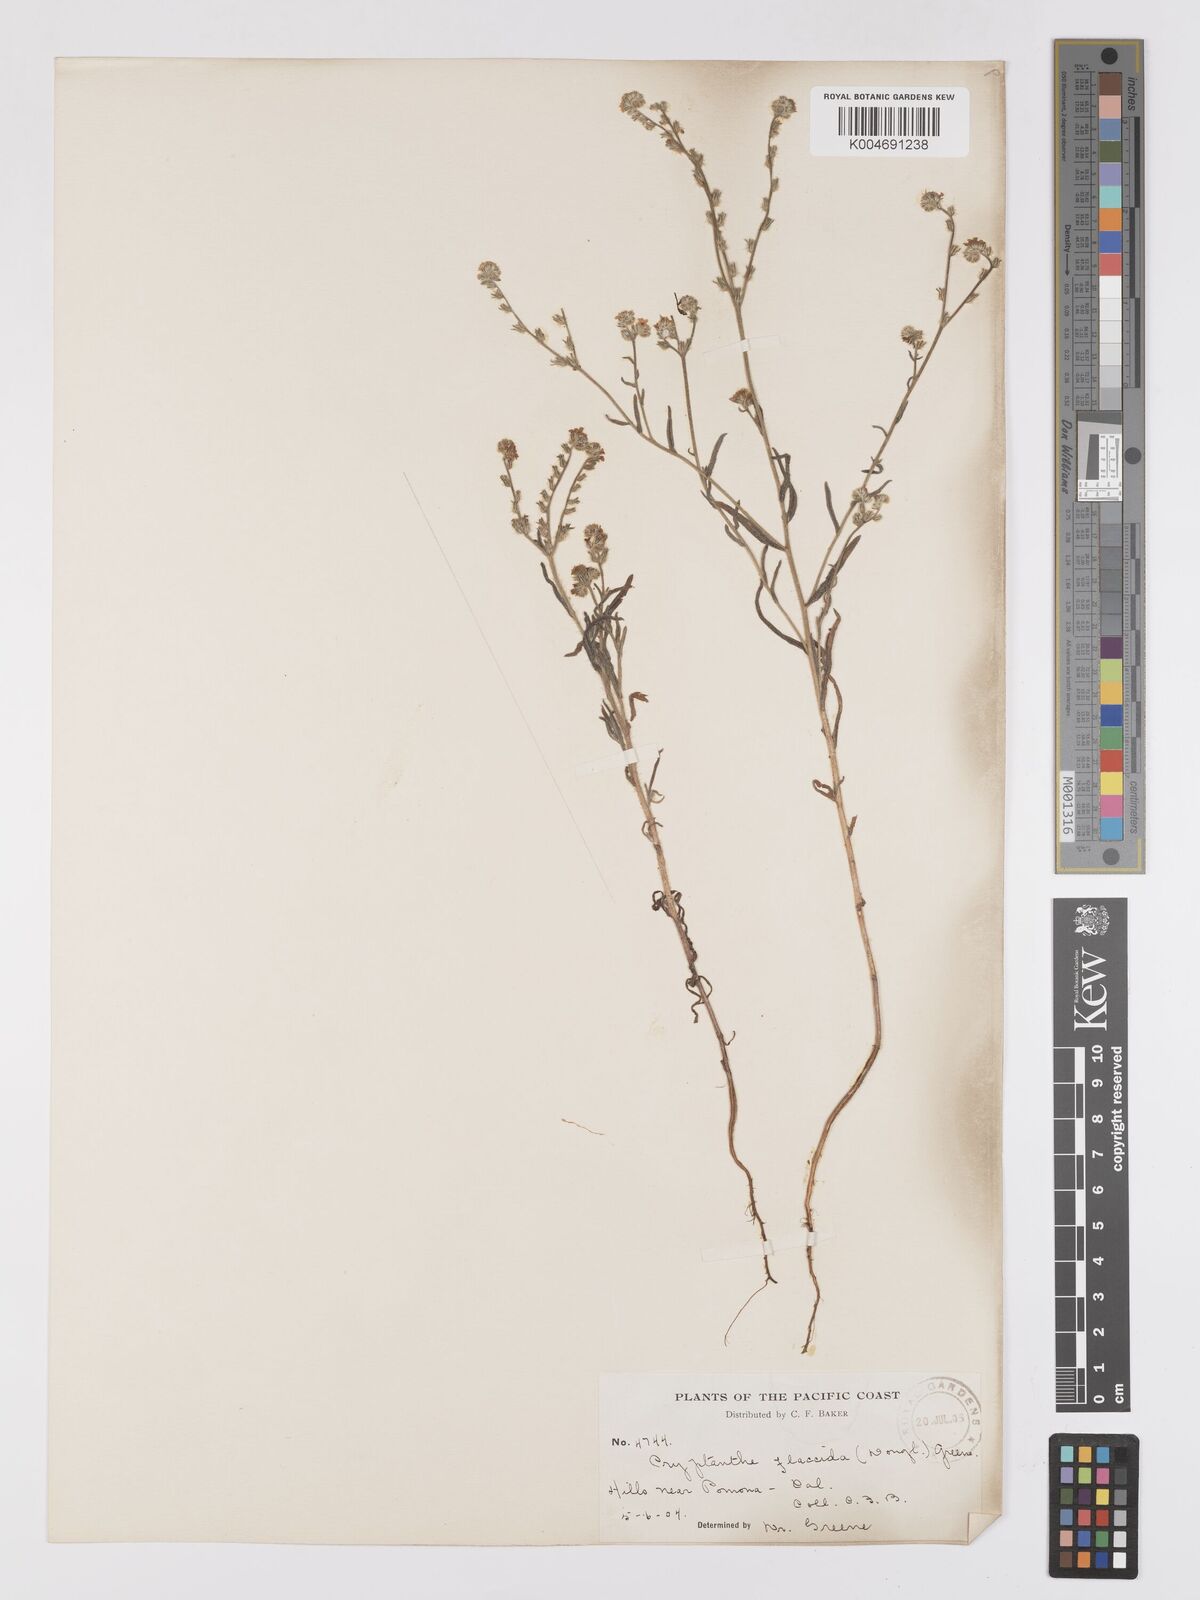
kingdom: Plantae
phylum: Tracheophyta
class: Magnoliopsida
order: Boraginales
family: Boraginaceae
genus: Cryptantha
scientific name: Cryptantha flaccida
